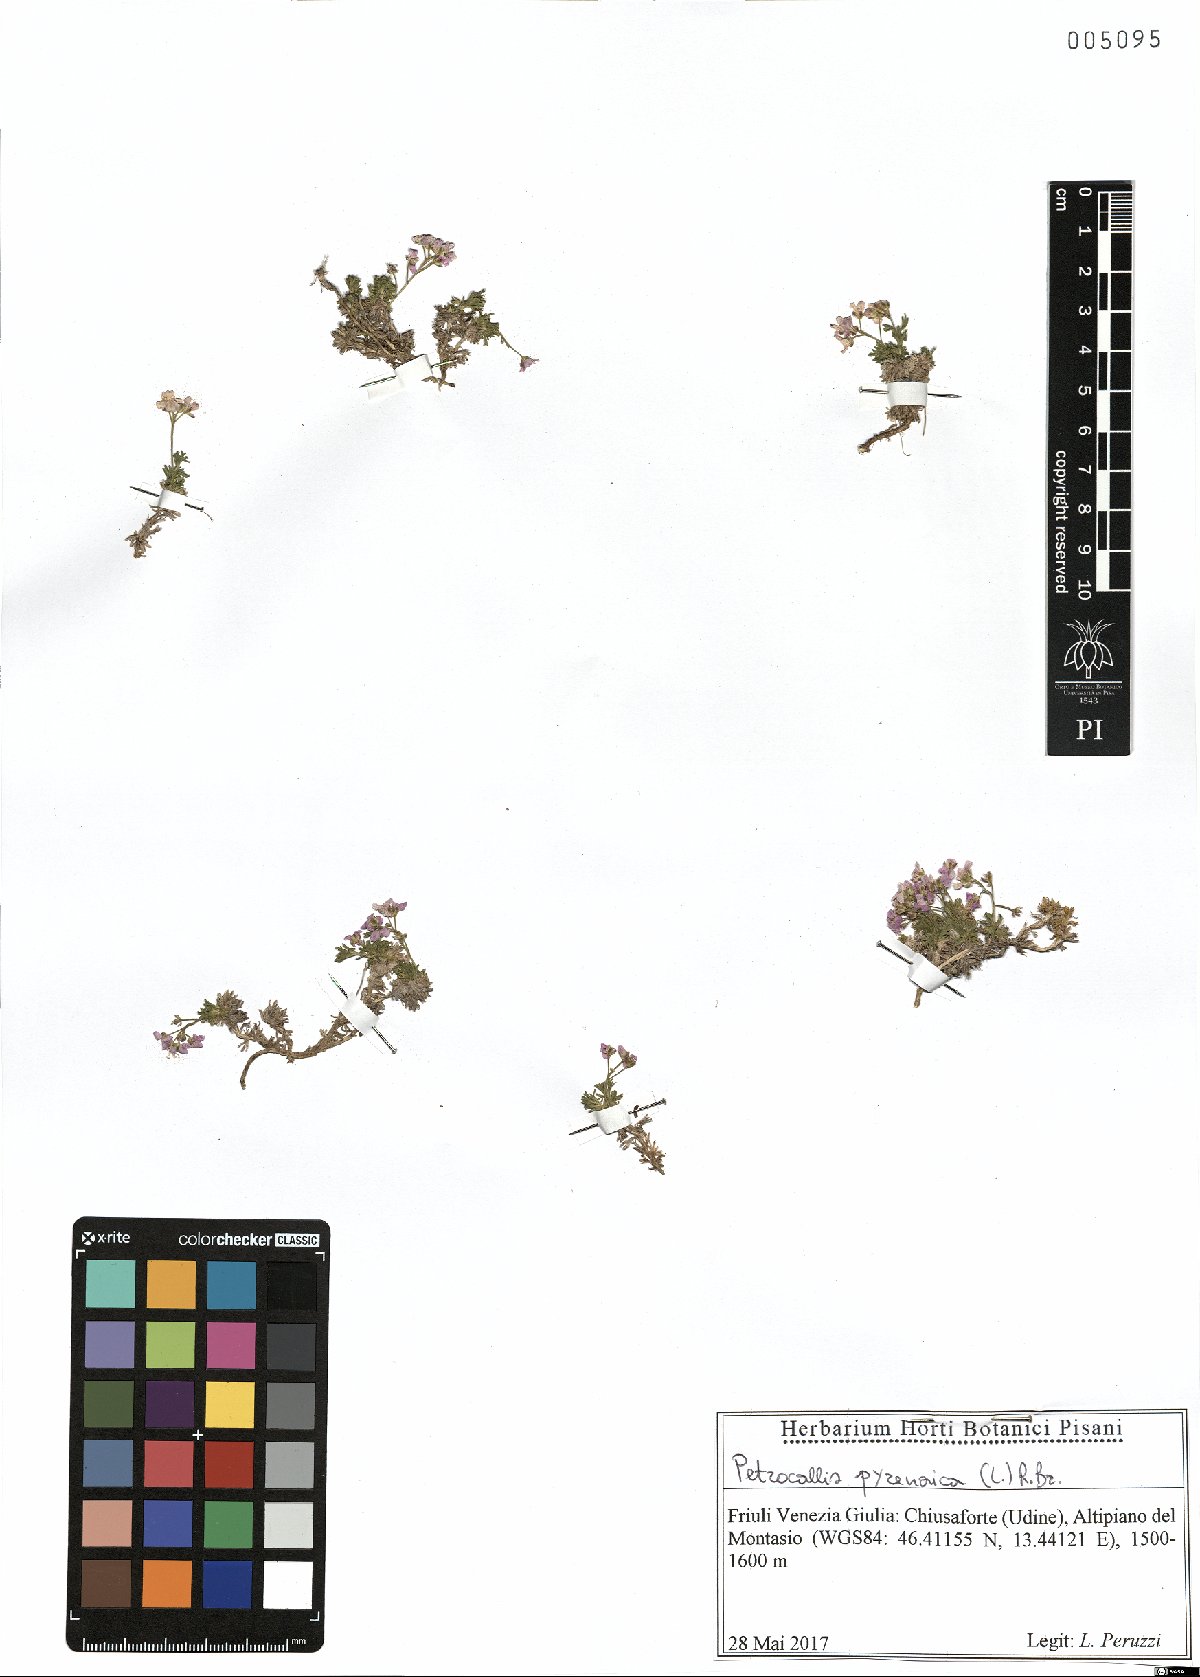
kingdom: Plantae
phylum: Tracheophyta
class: Magnoliopsida
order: Brassicales
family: Brassicaceae
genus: Petrocallis
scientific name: Petrocallis pyrenaica
